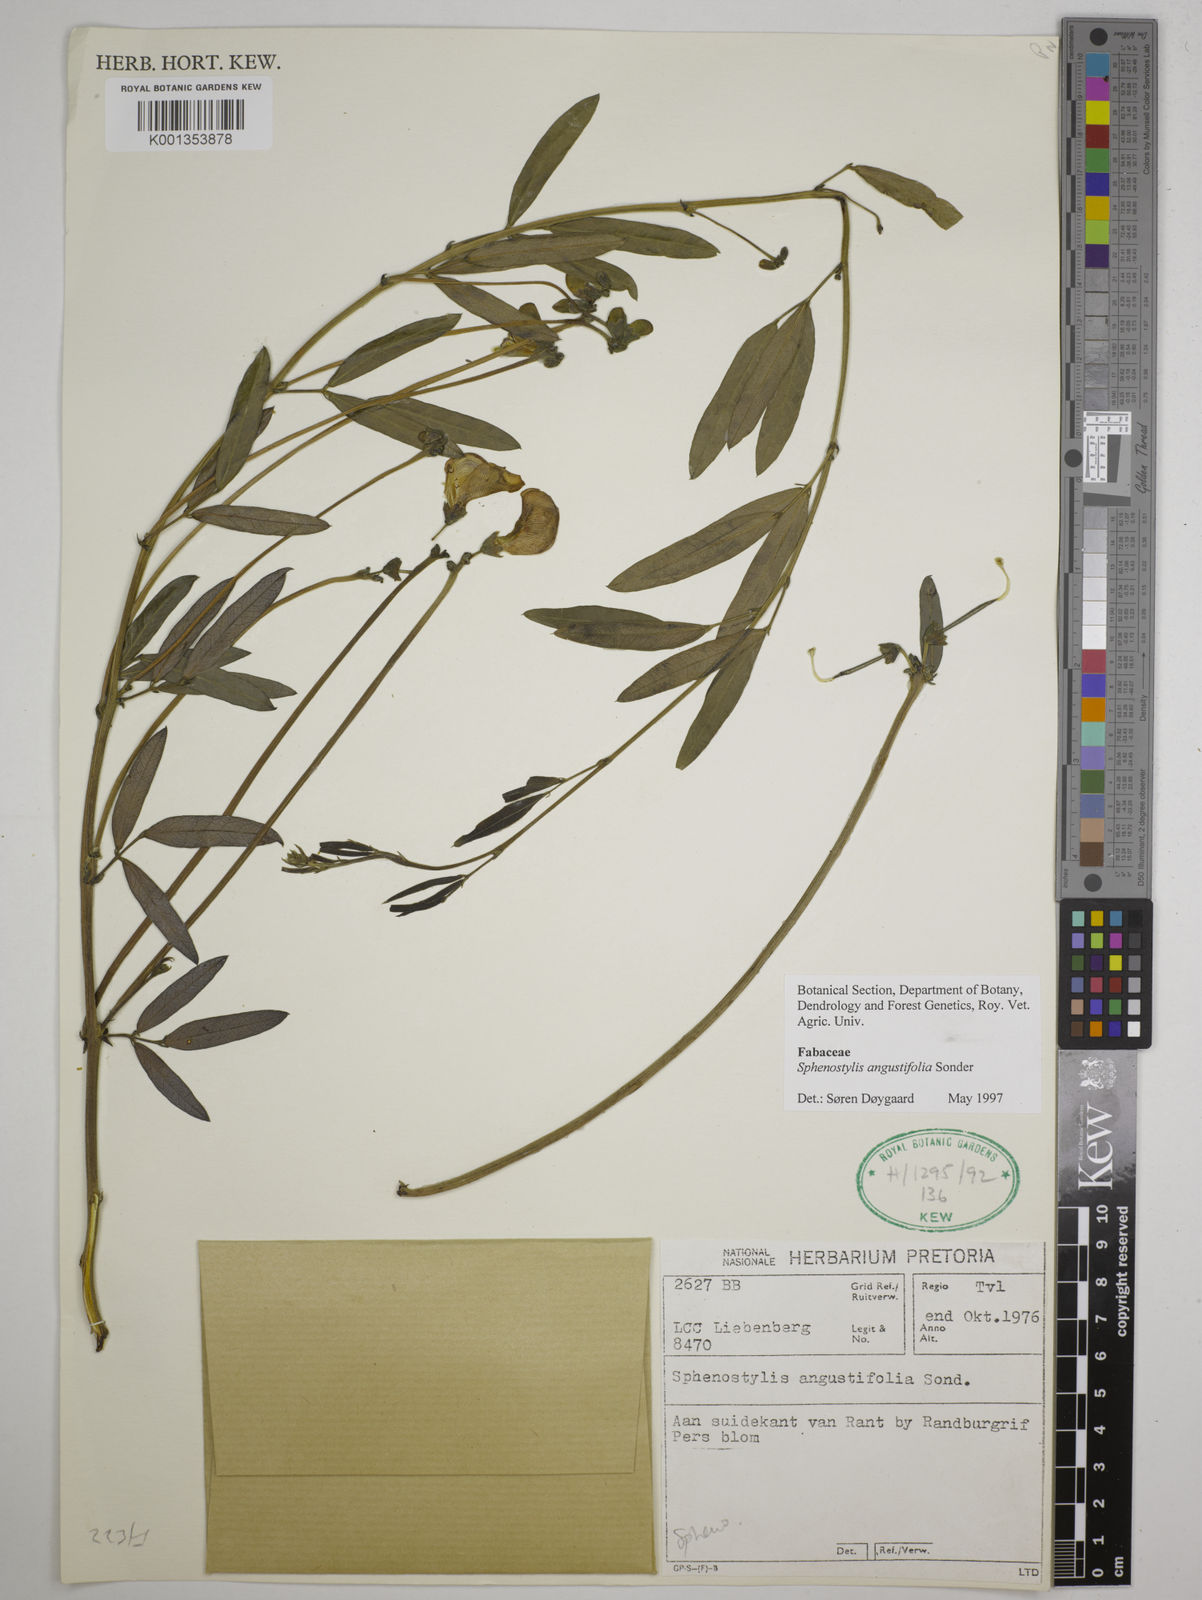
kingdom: Plantae
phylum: Tracheophyta
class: Magnoliopsida
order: Fabales
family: Fabaceae
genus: Sphenostylis
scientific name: Sphenostylis angustifolia
